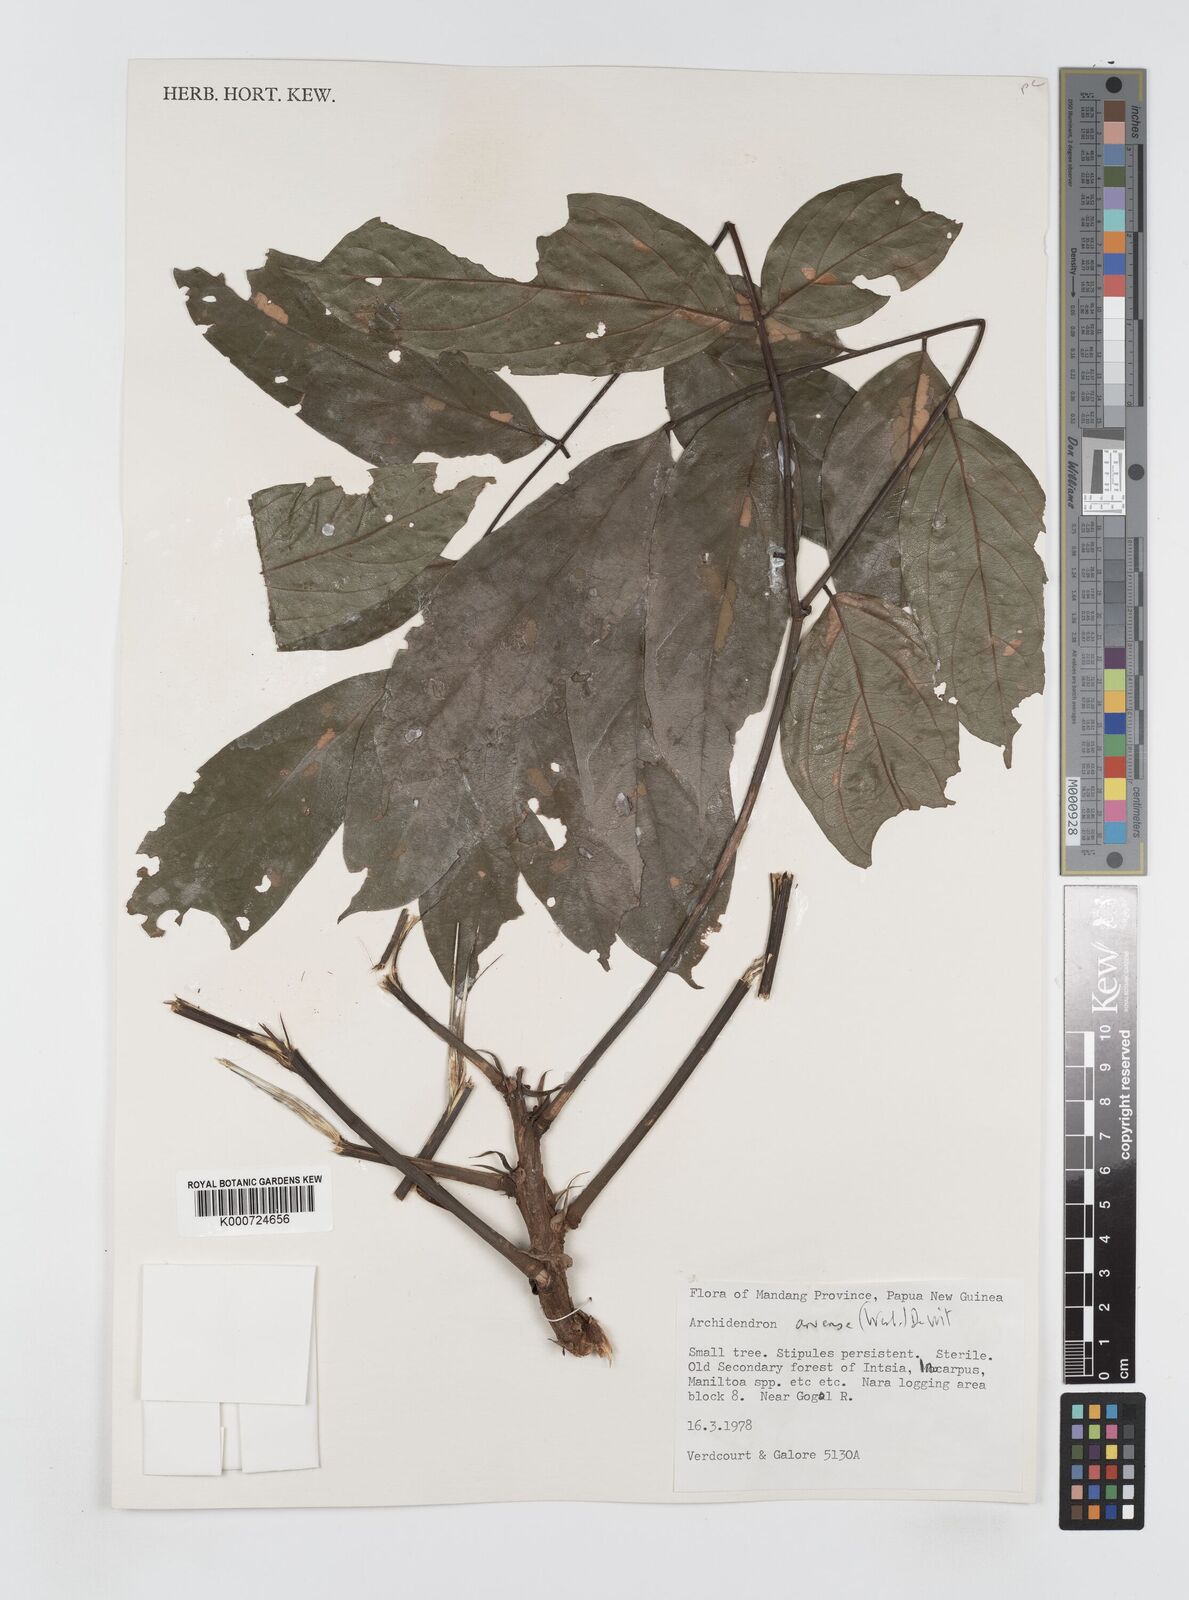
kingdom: Plantae
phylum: Tracheophyta
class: Magnoliopsida
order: Fabales
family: Fabaceae
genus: Archidendron
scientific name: Archidendron aruense
